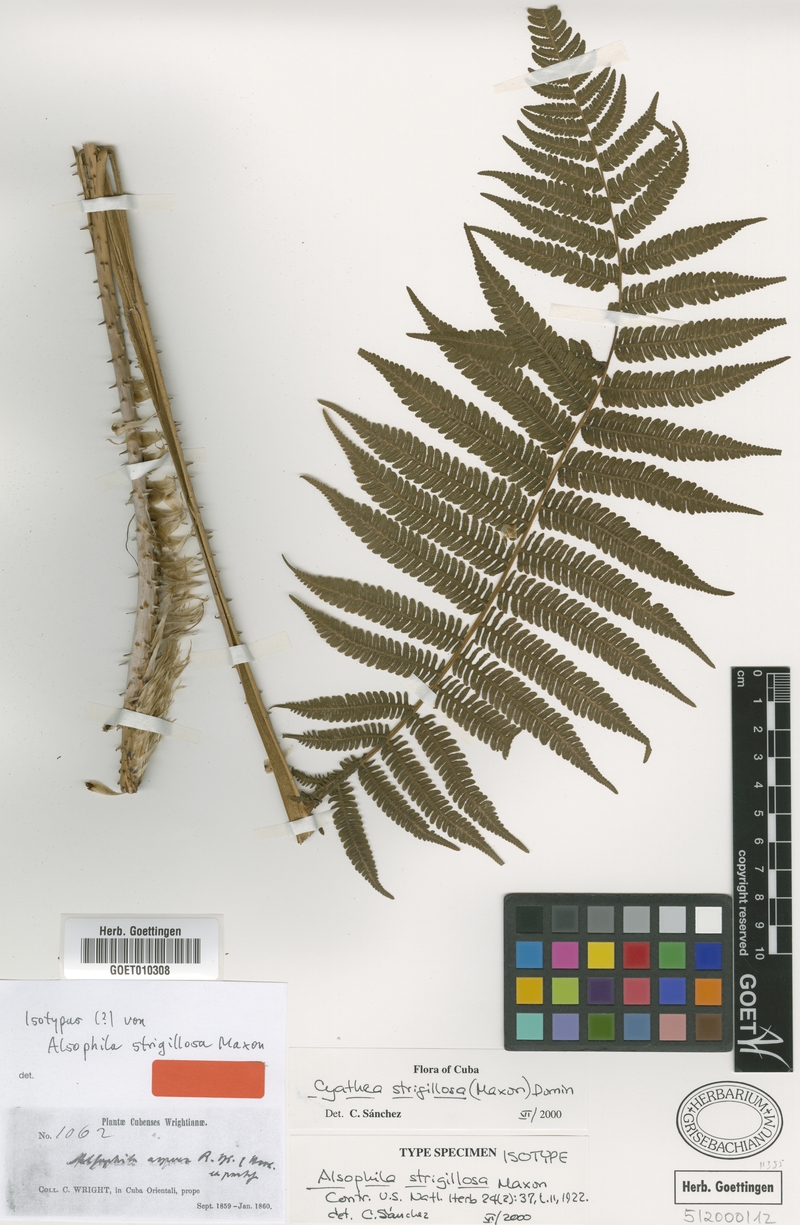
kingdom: Plantae
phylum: Tracheophyta
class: Polypodiopsida
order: Cyatheales
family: Cyatheaceae
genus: Cyathea
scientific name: Cyathea strigillosa
